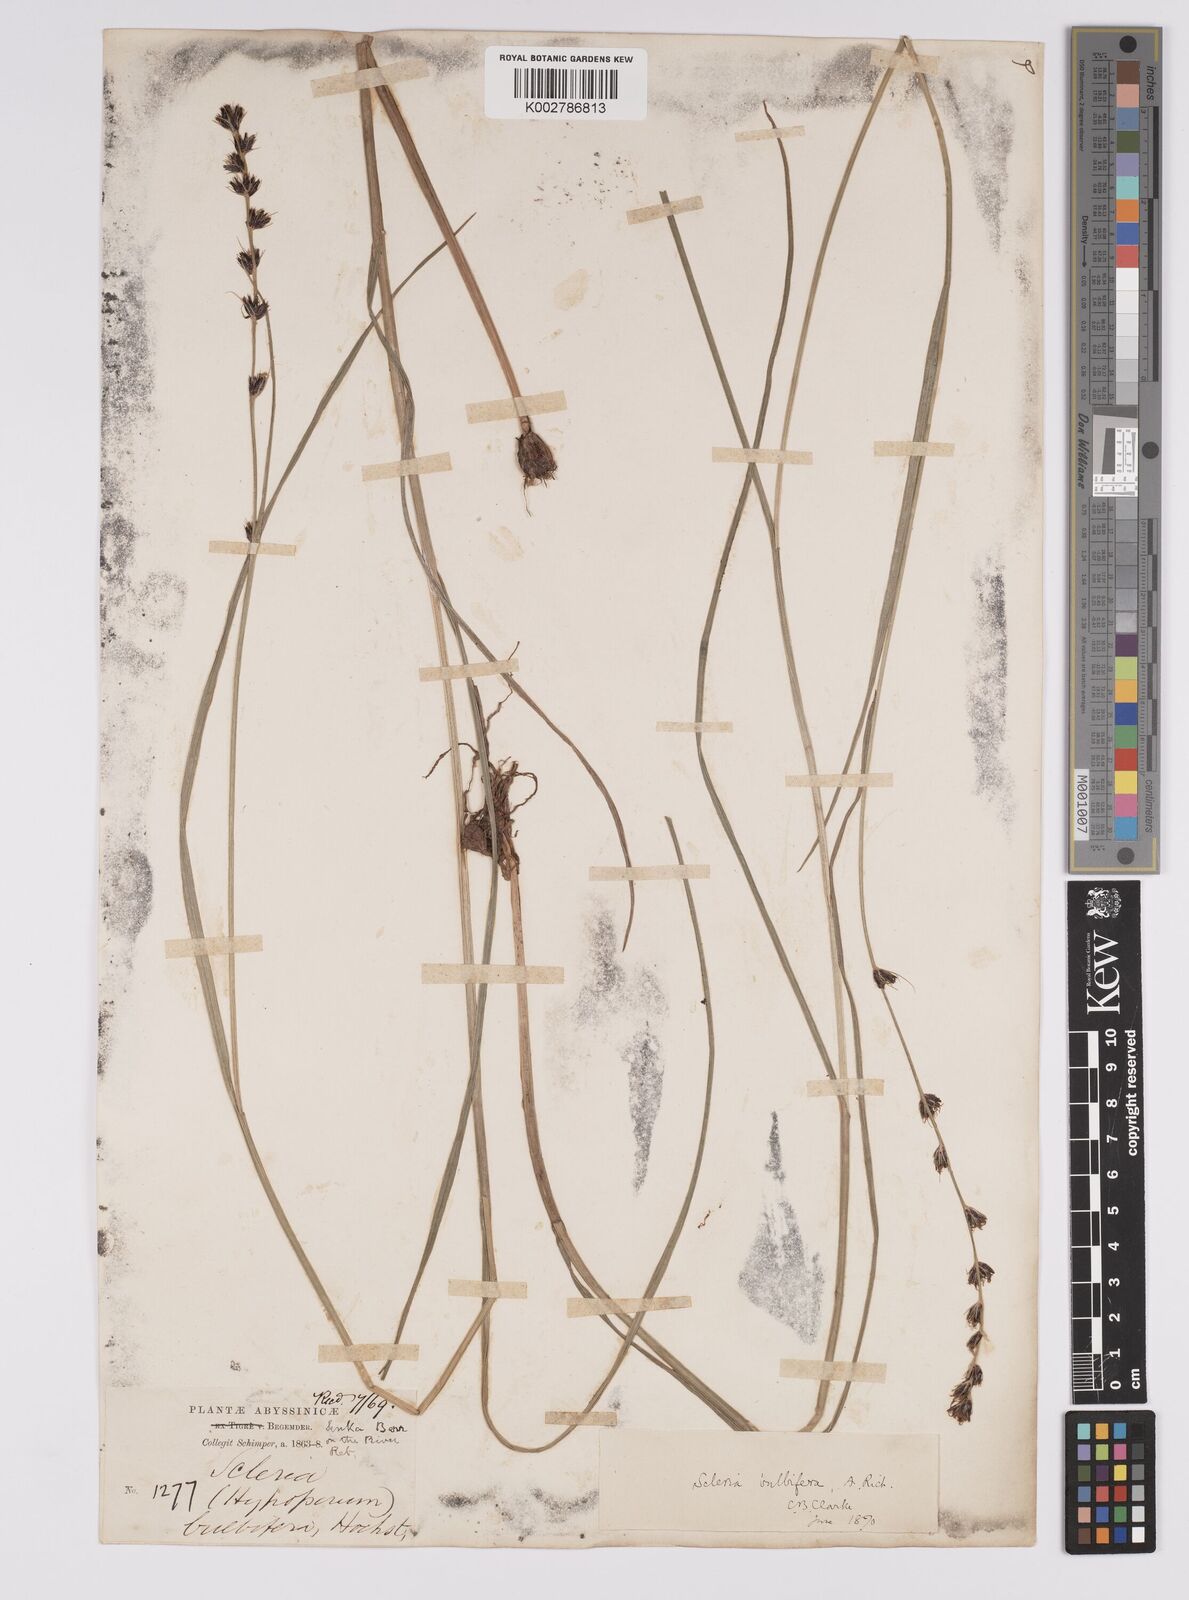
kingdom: Plantae
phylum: Tracheophyta
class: Liliopsida
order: Poales
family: Cyperaceae
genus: Scleria
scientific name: Scleria bulbifera
